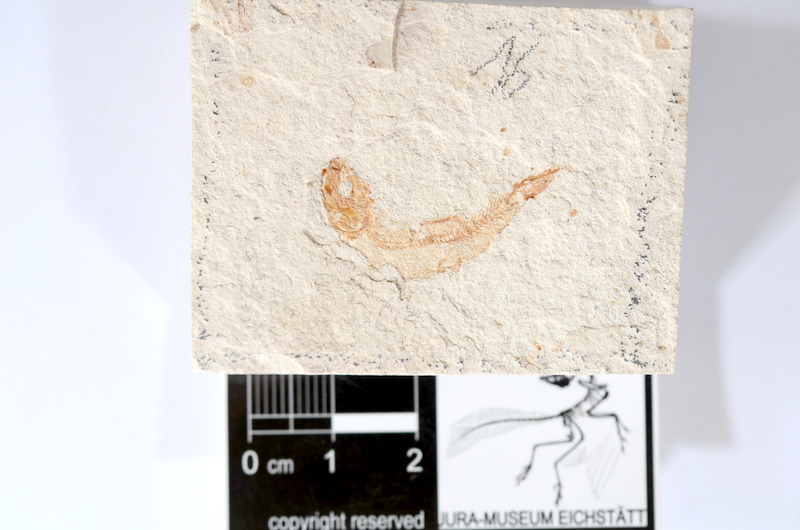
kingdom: Animalia
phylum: Chordata
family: Ascalaboidae
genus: Tharsis
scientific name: Tharsis dubius
